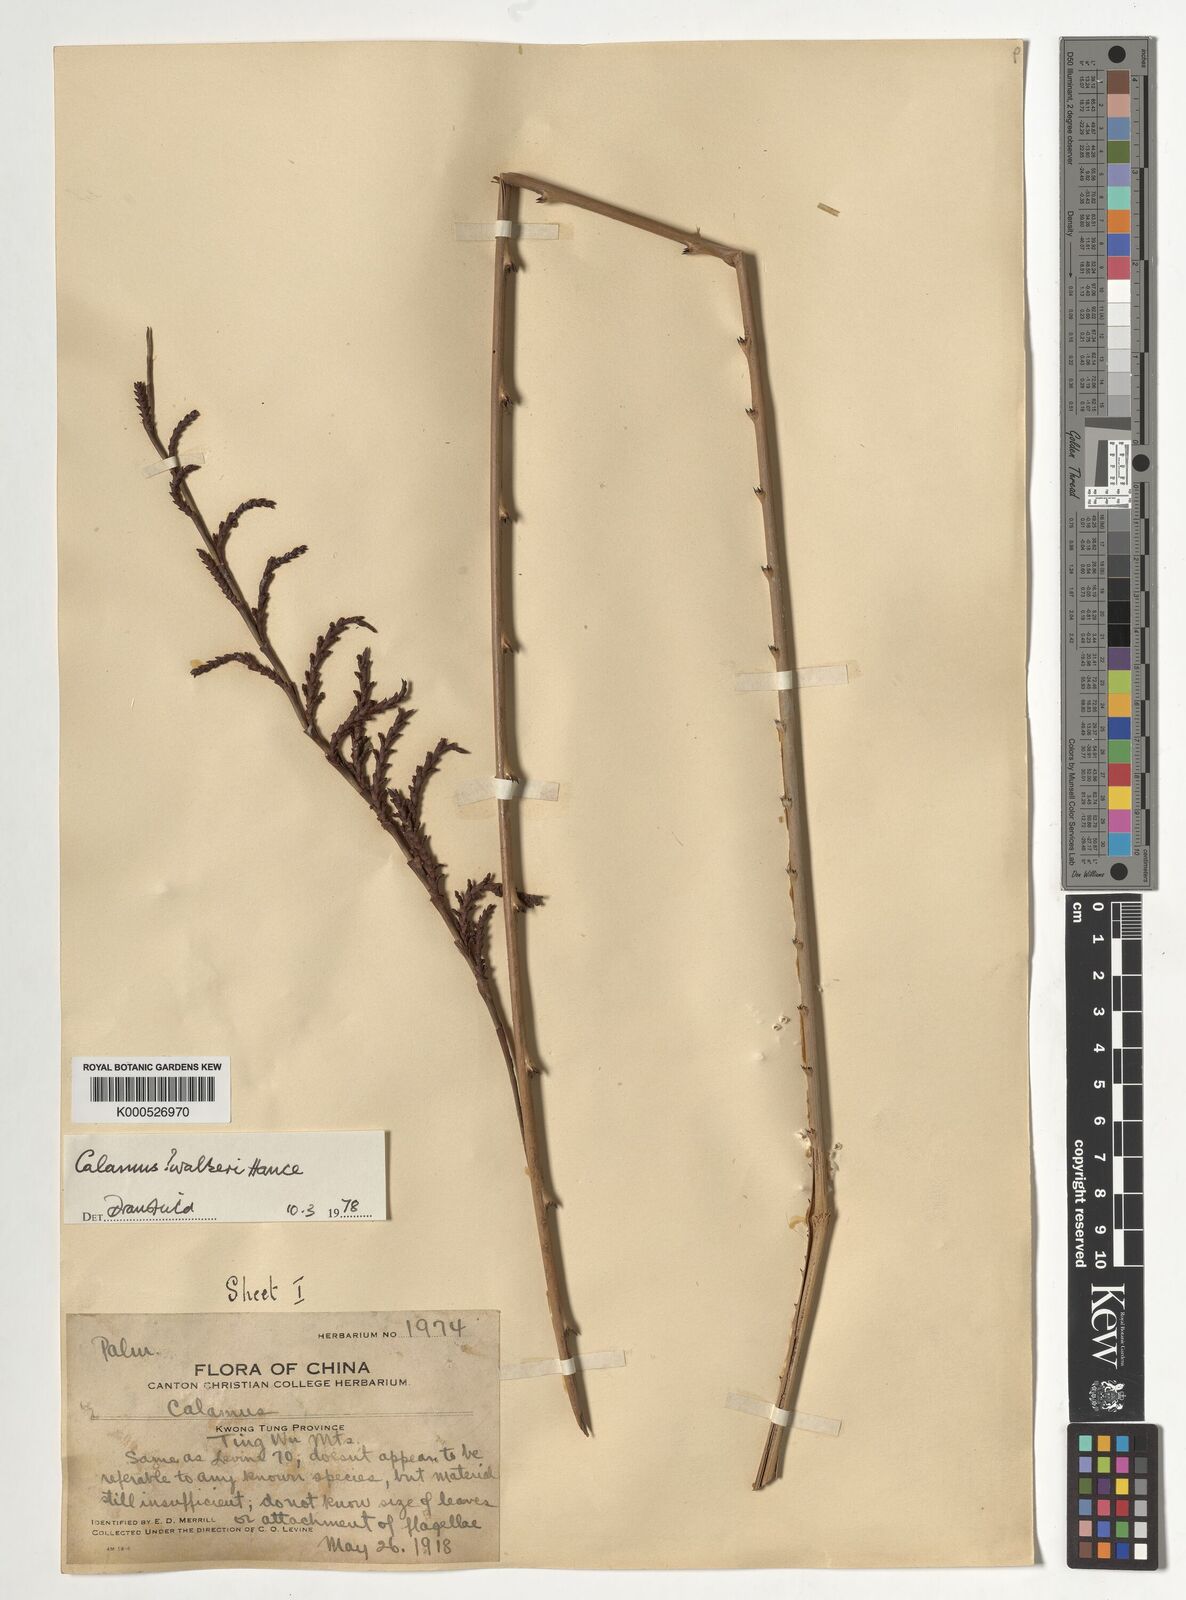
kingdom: Plantae
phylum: Tracheophyta
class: Liliopsida
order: Arecales
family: Arecaceae
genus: Calamus
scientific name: Calamus walkeri
